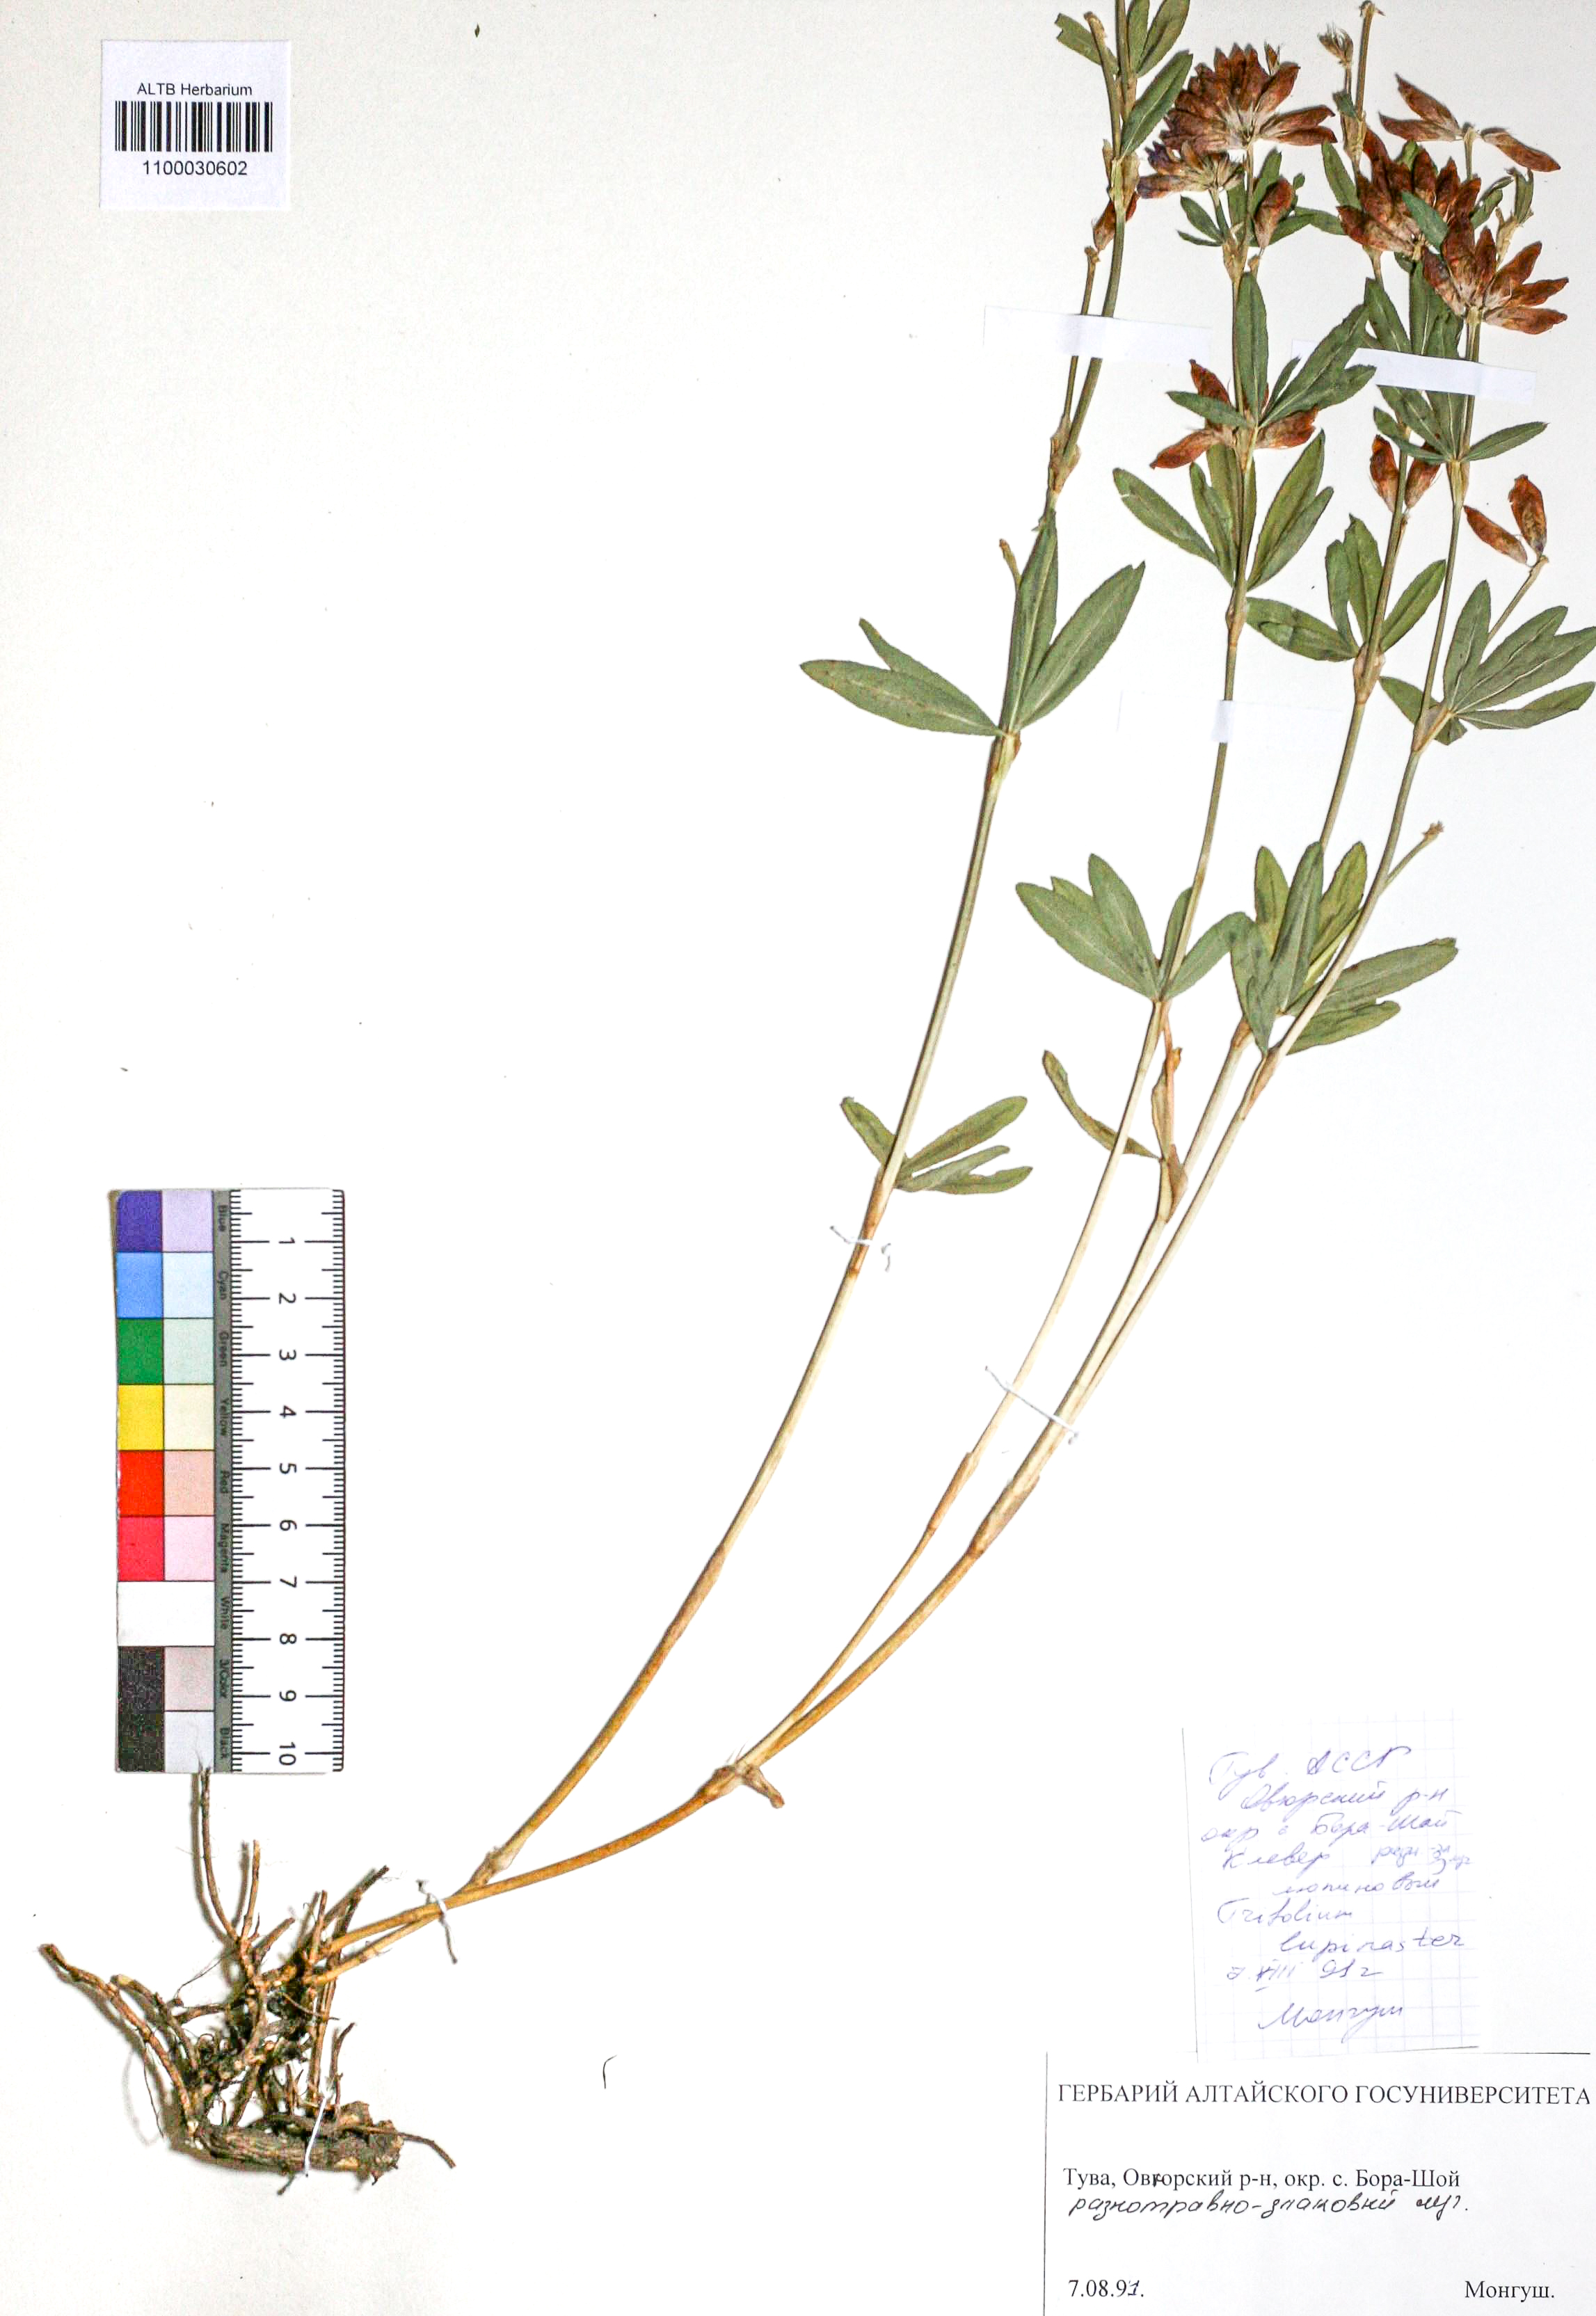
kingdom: Plantae
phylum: Tracheophyta
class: Magnoliopsida
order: Fabales
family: Fabaceae
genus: Trifolium
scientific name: Trifolium lupinaster
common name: Lupine clover
